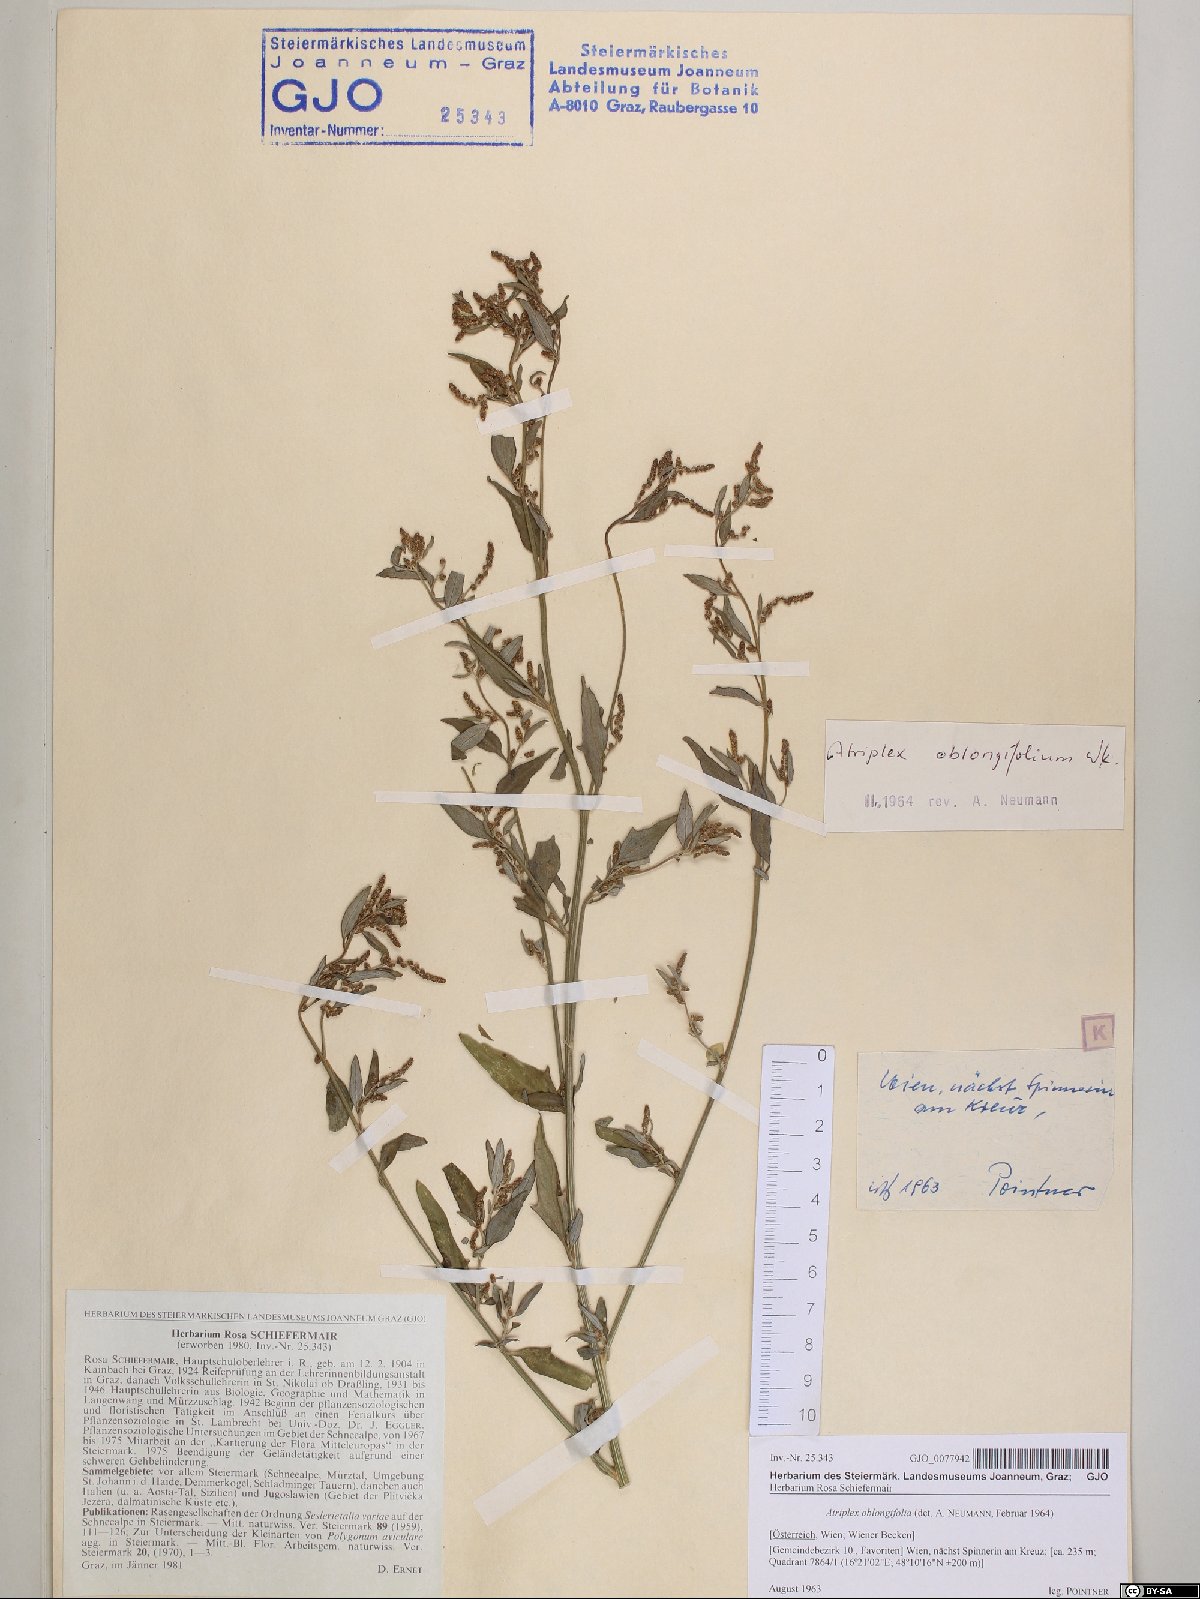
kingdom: Plantae
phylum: Tracheophyta
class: Magnoliopsida
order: Caryophyllales
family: Amaranthaceae
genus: Atriplex
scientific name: Atriplex oblongifolia
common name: Oblongleaf orache
